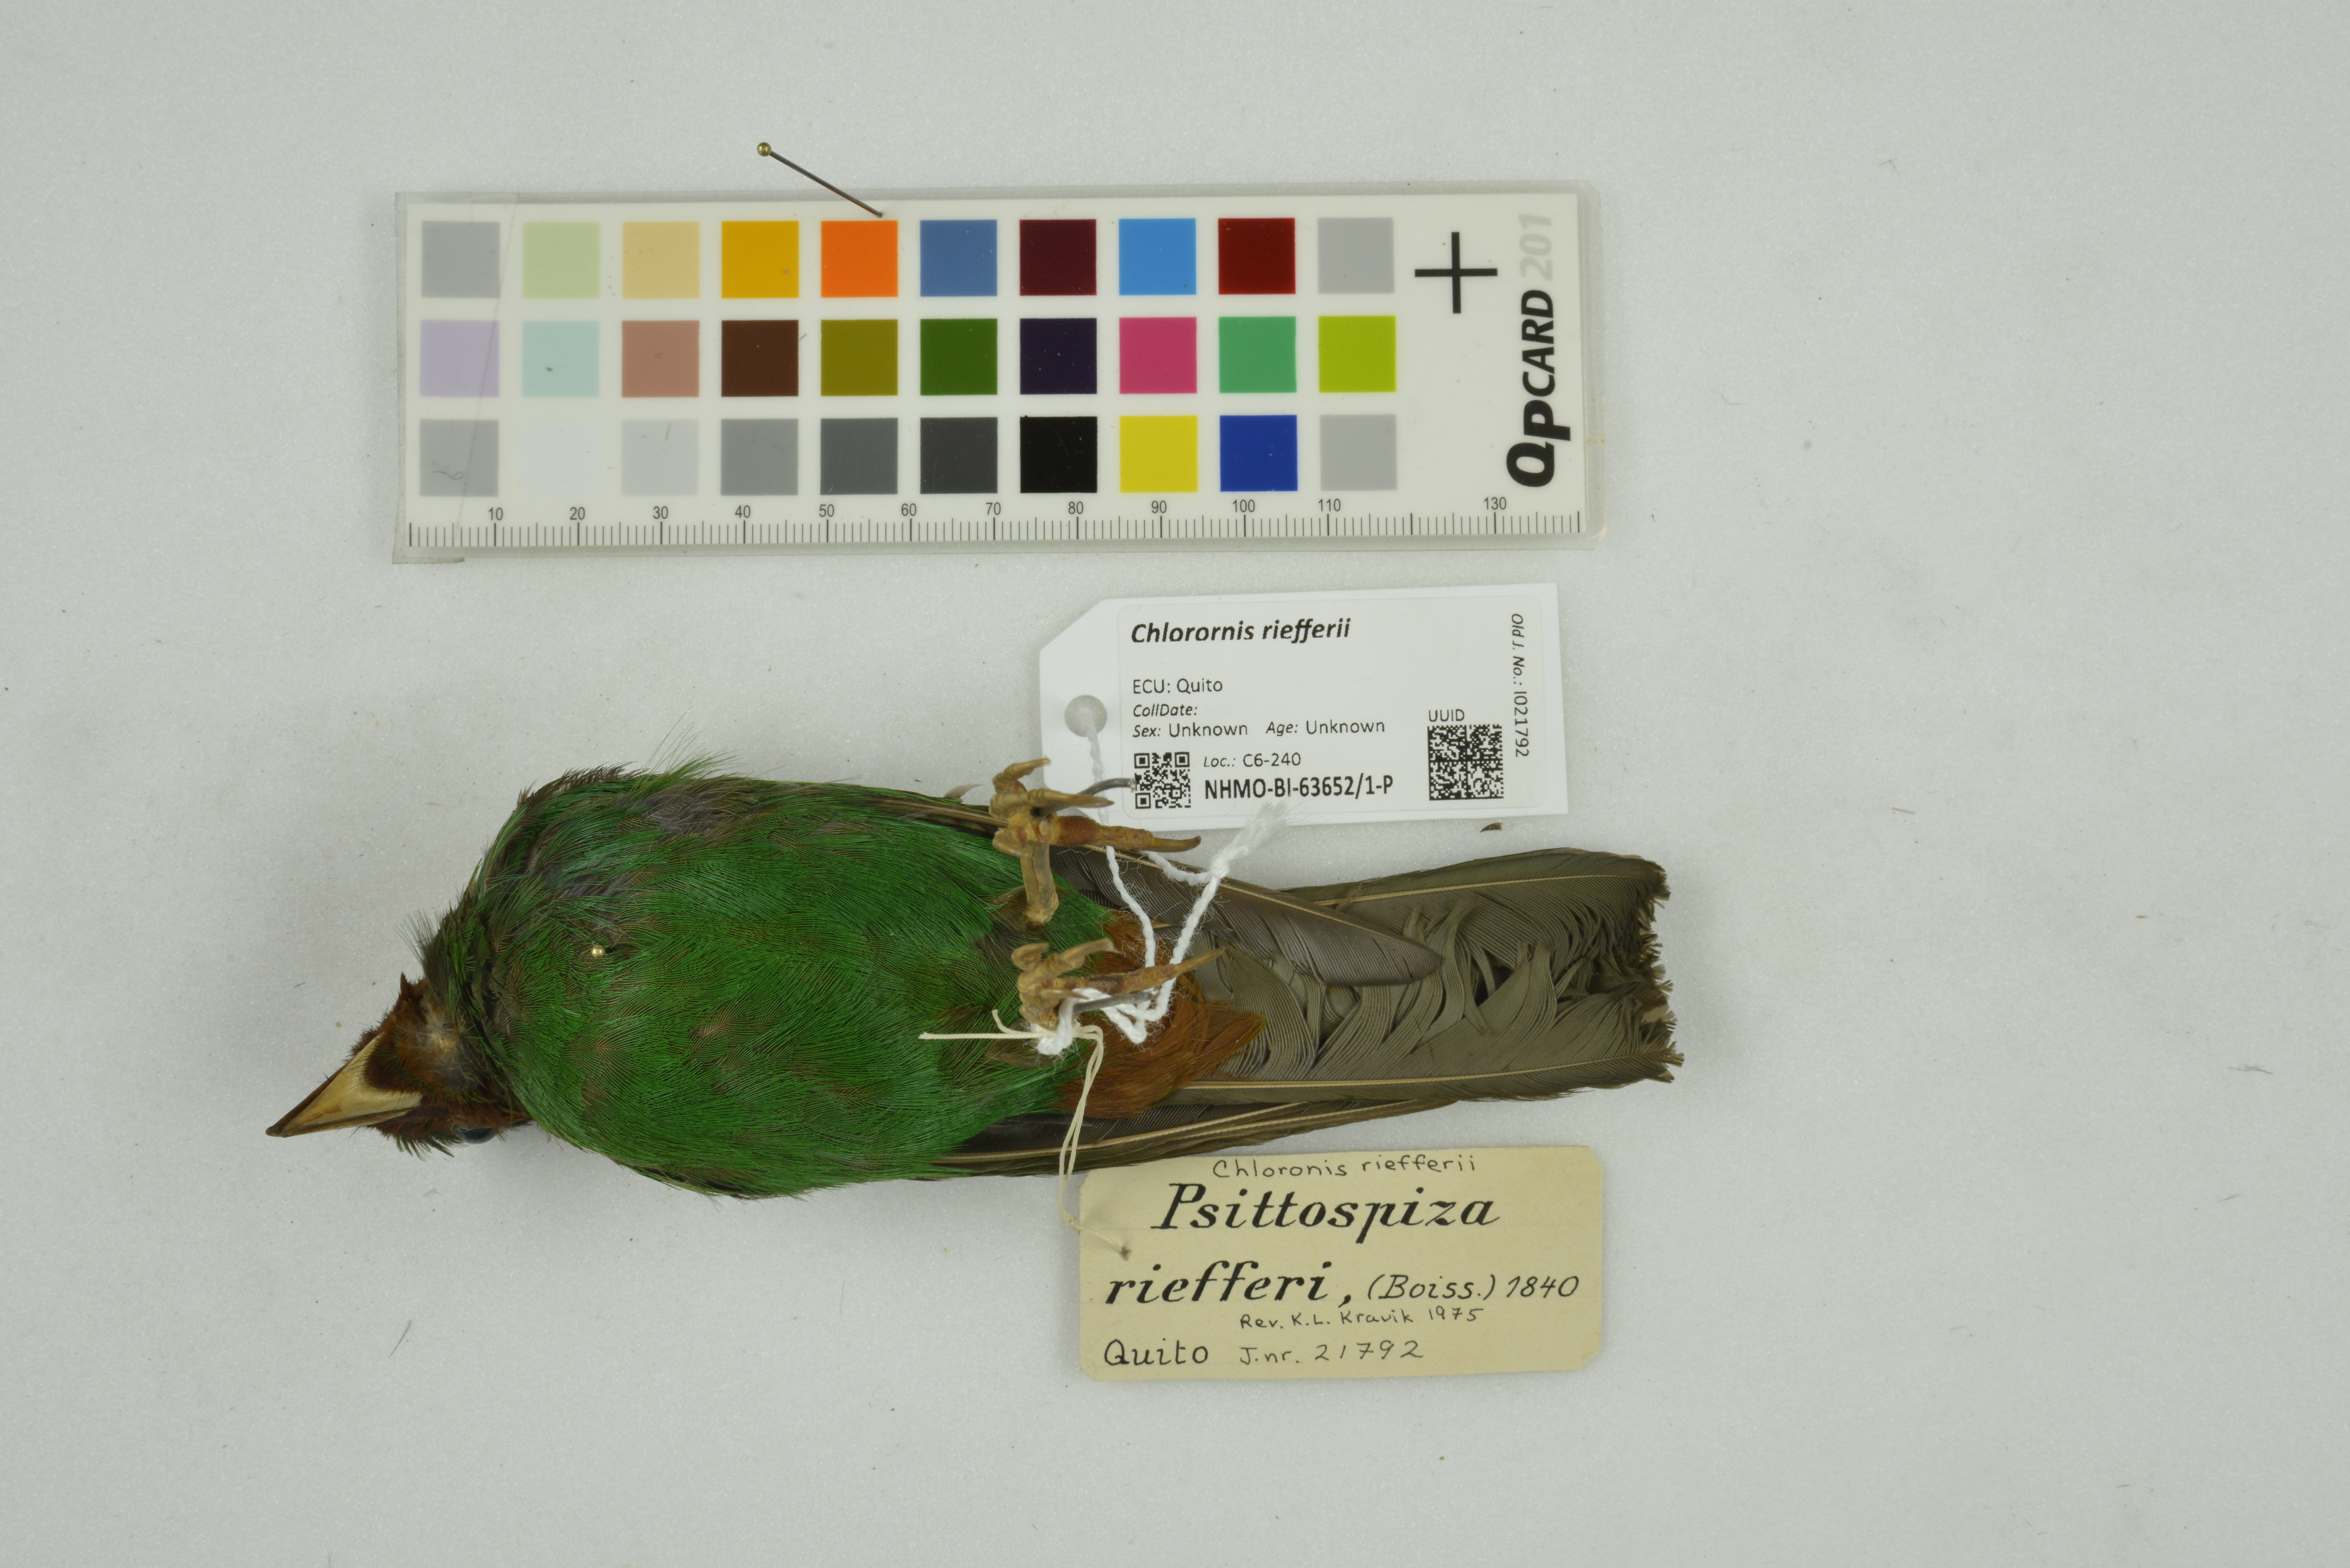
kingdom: Animalia
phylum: Chordata
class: Aves
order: Passeriformes
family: Thraupidae
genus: Chlorornis
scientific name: Chlorornis riefferii
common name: Grass-green tanager
